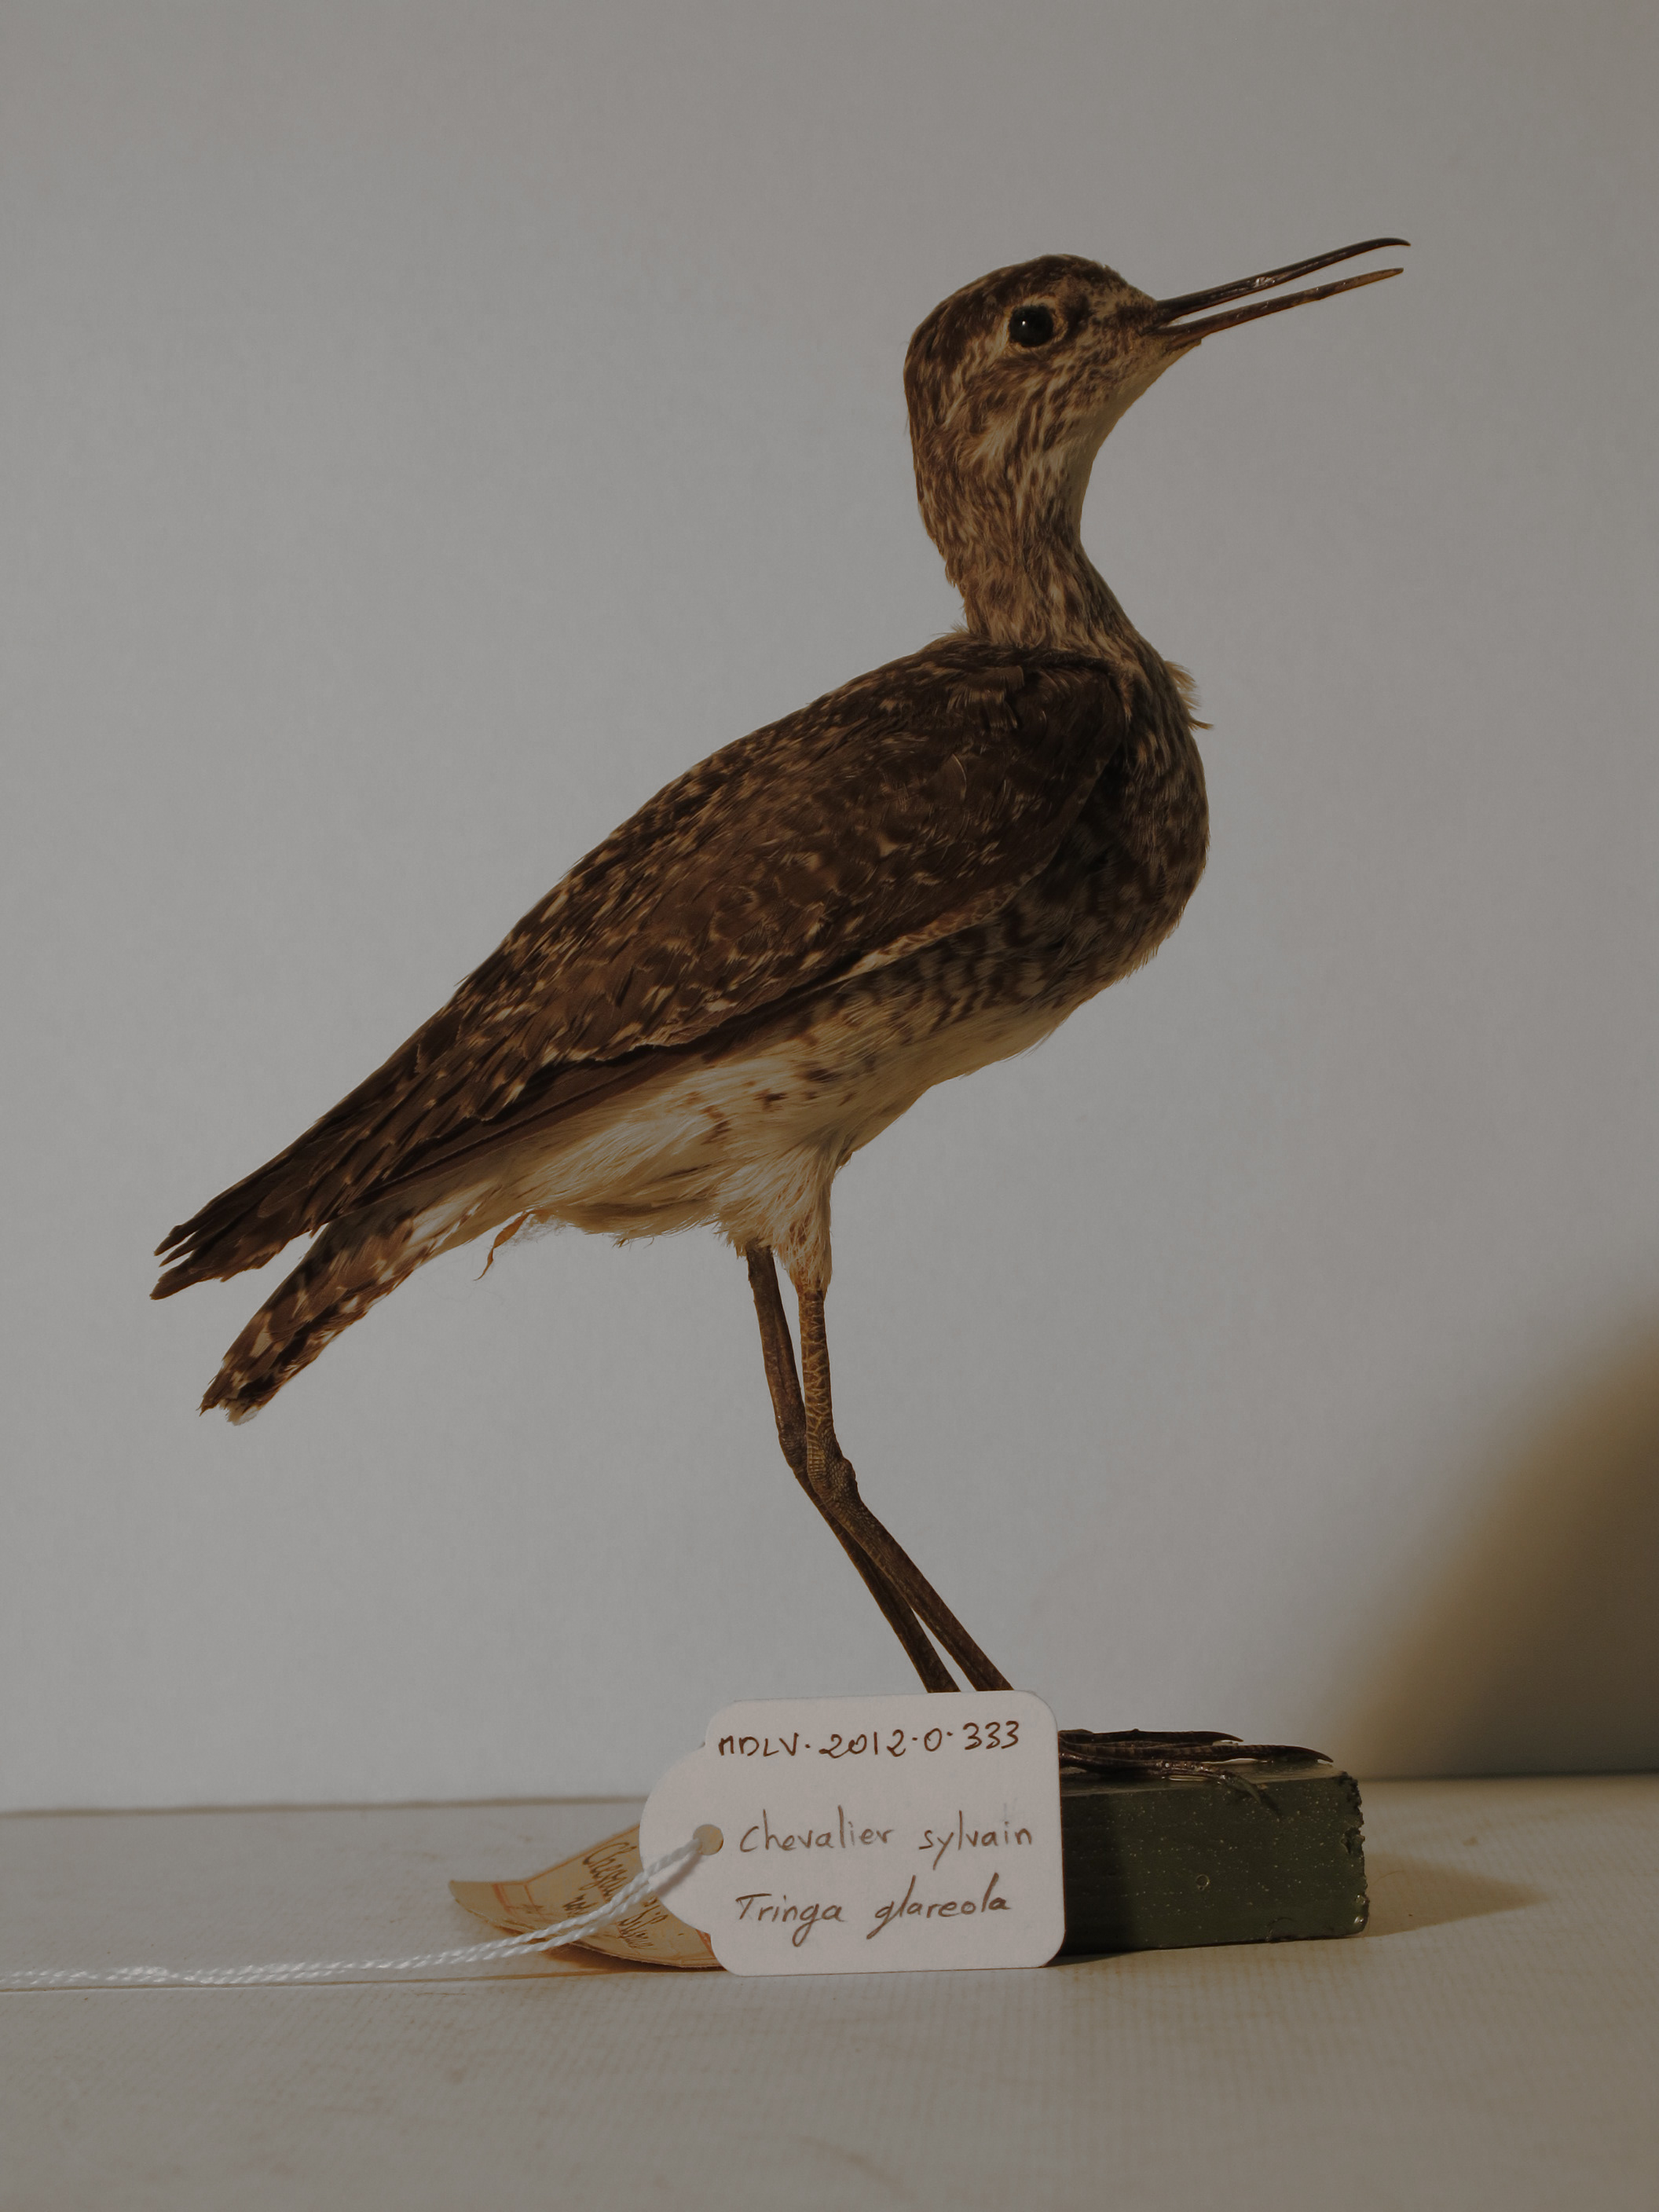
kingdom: Animalia
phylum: Chordata
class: Aves
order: Charadriiformes
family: Scolopacidae
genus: Tringa
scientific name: Tringa glareola
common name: Wood Sandpiper
